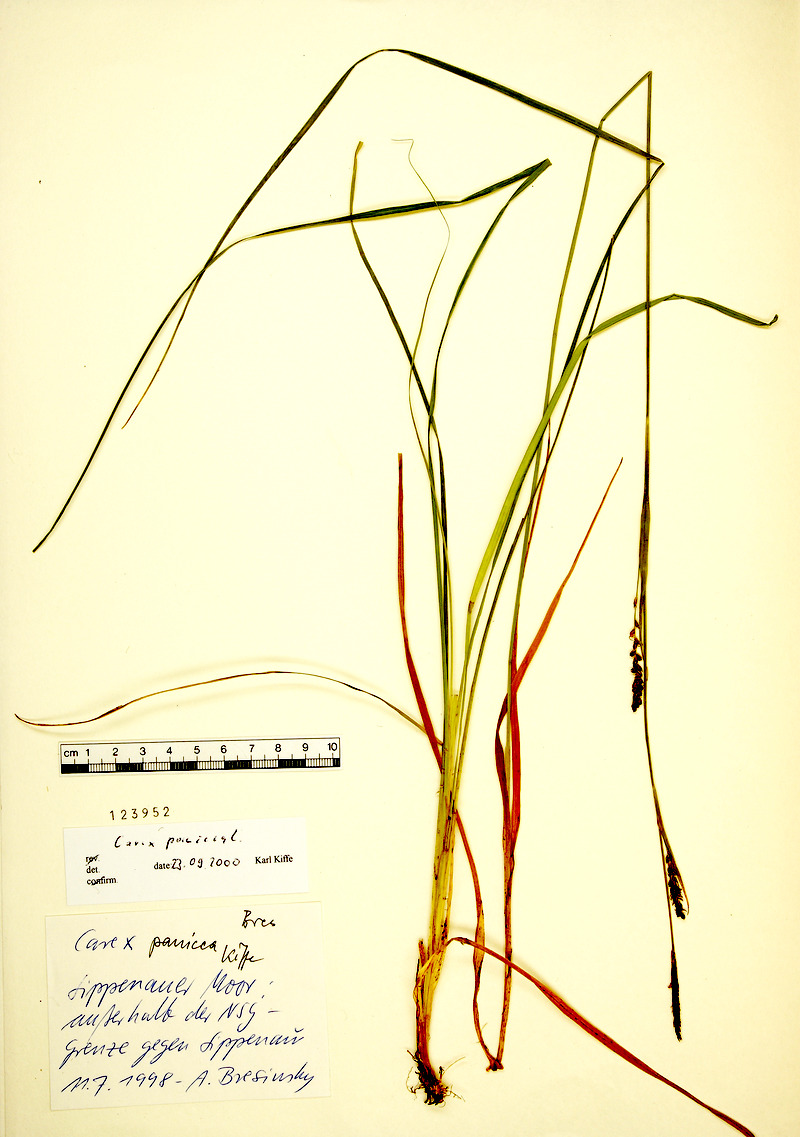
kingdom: Plantae
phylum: Tracheophyta
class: Liliopsida
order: Poales
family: Cyperaceae
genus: Carex
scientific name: Carex panicea
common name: Carnation sedge
